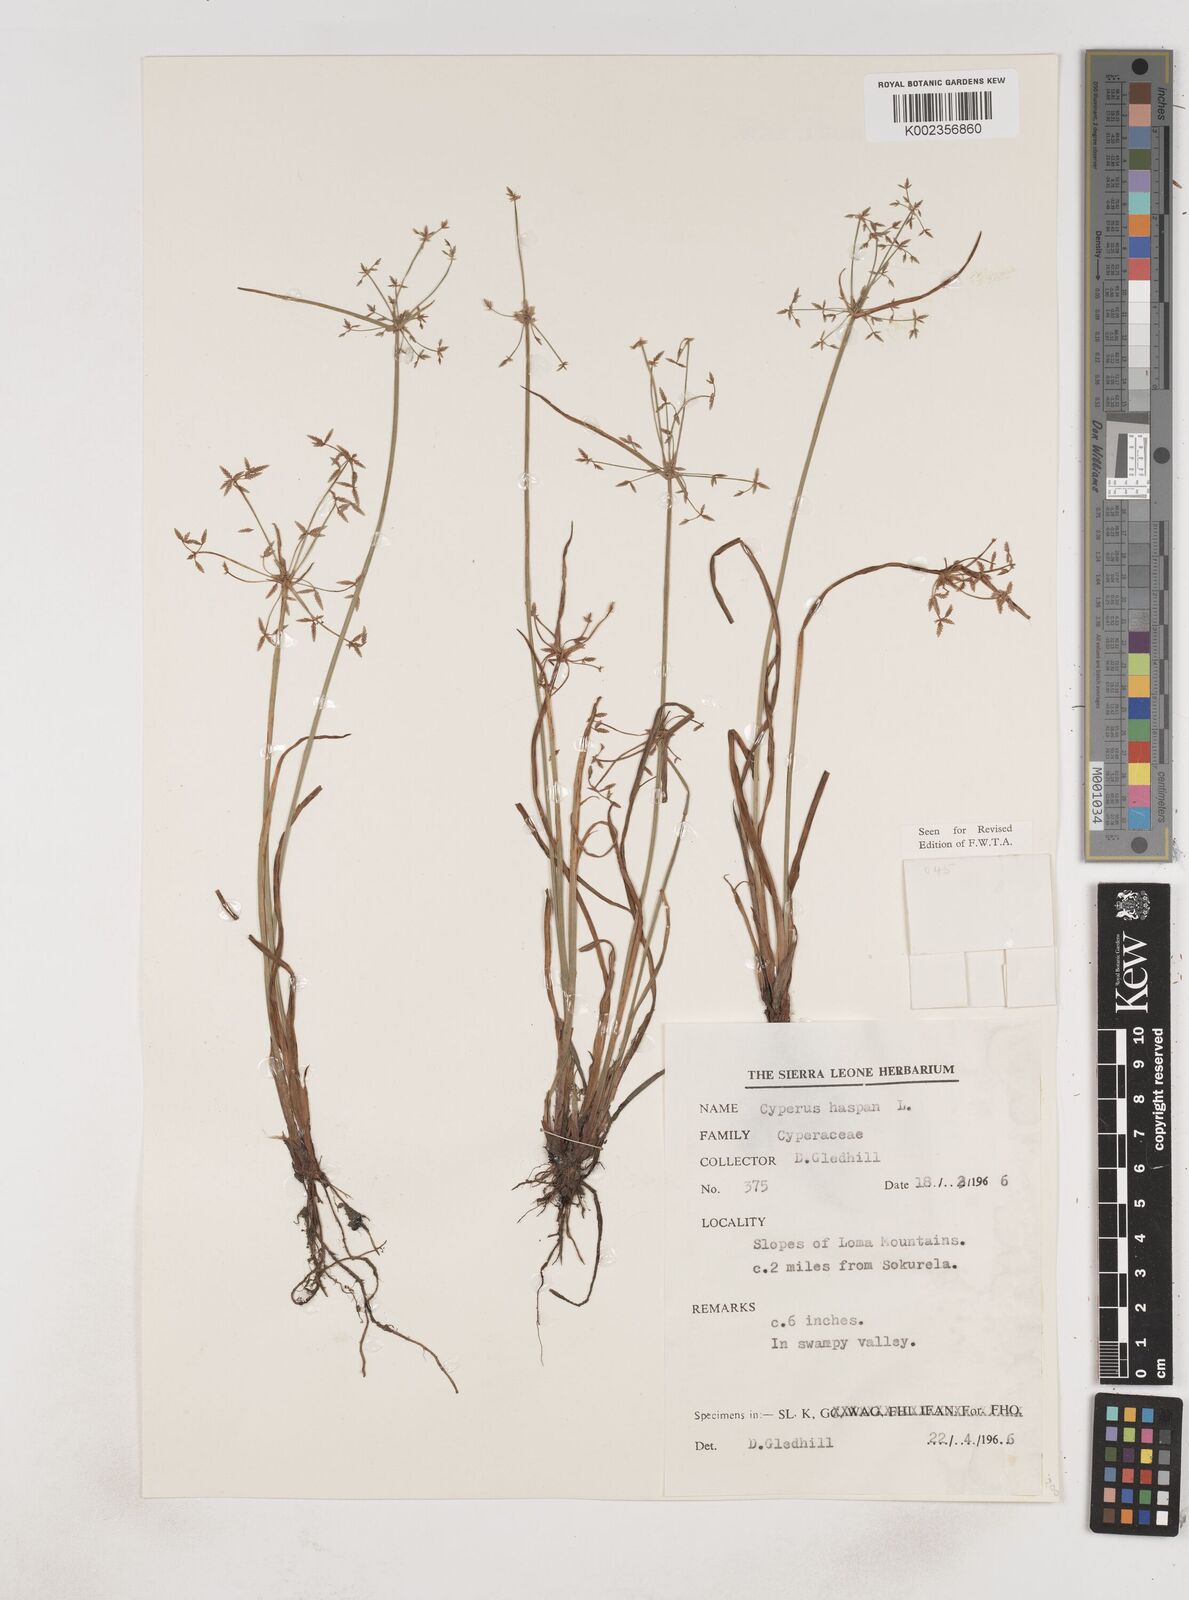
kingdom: Plantae
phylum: Tracheophyta
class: Liliopsida
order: Poales
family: Cyperaceae
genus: Cyperus
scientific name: Cyperus haspan
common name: Haspan flatsedge
